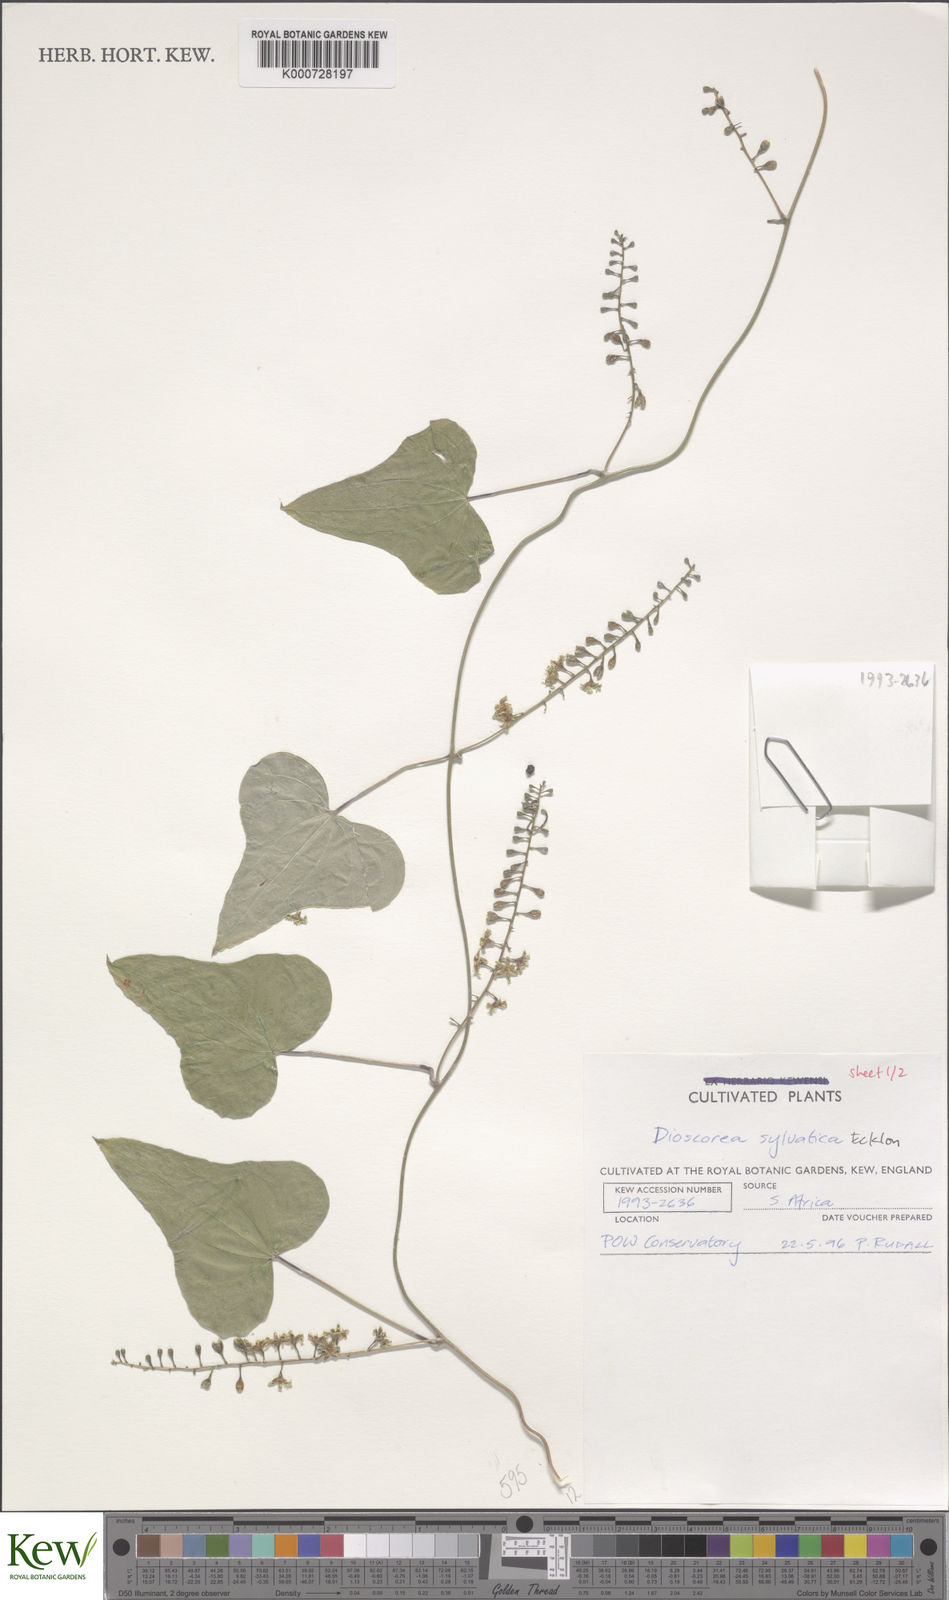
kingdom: Plantae
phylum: Tracheophyta
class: Liliopsida
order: Dioscoreales
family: Dioscoreaceae
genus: Dioscorea
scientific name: Dioscorea sylvatica
